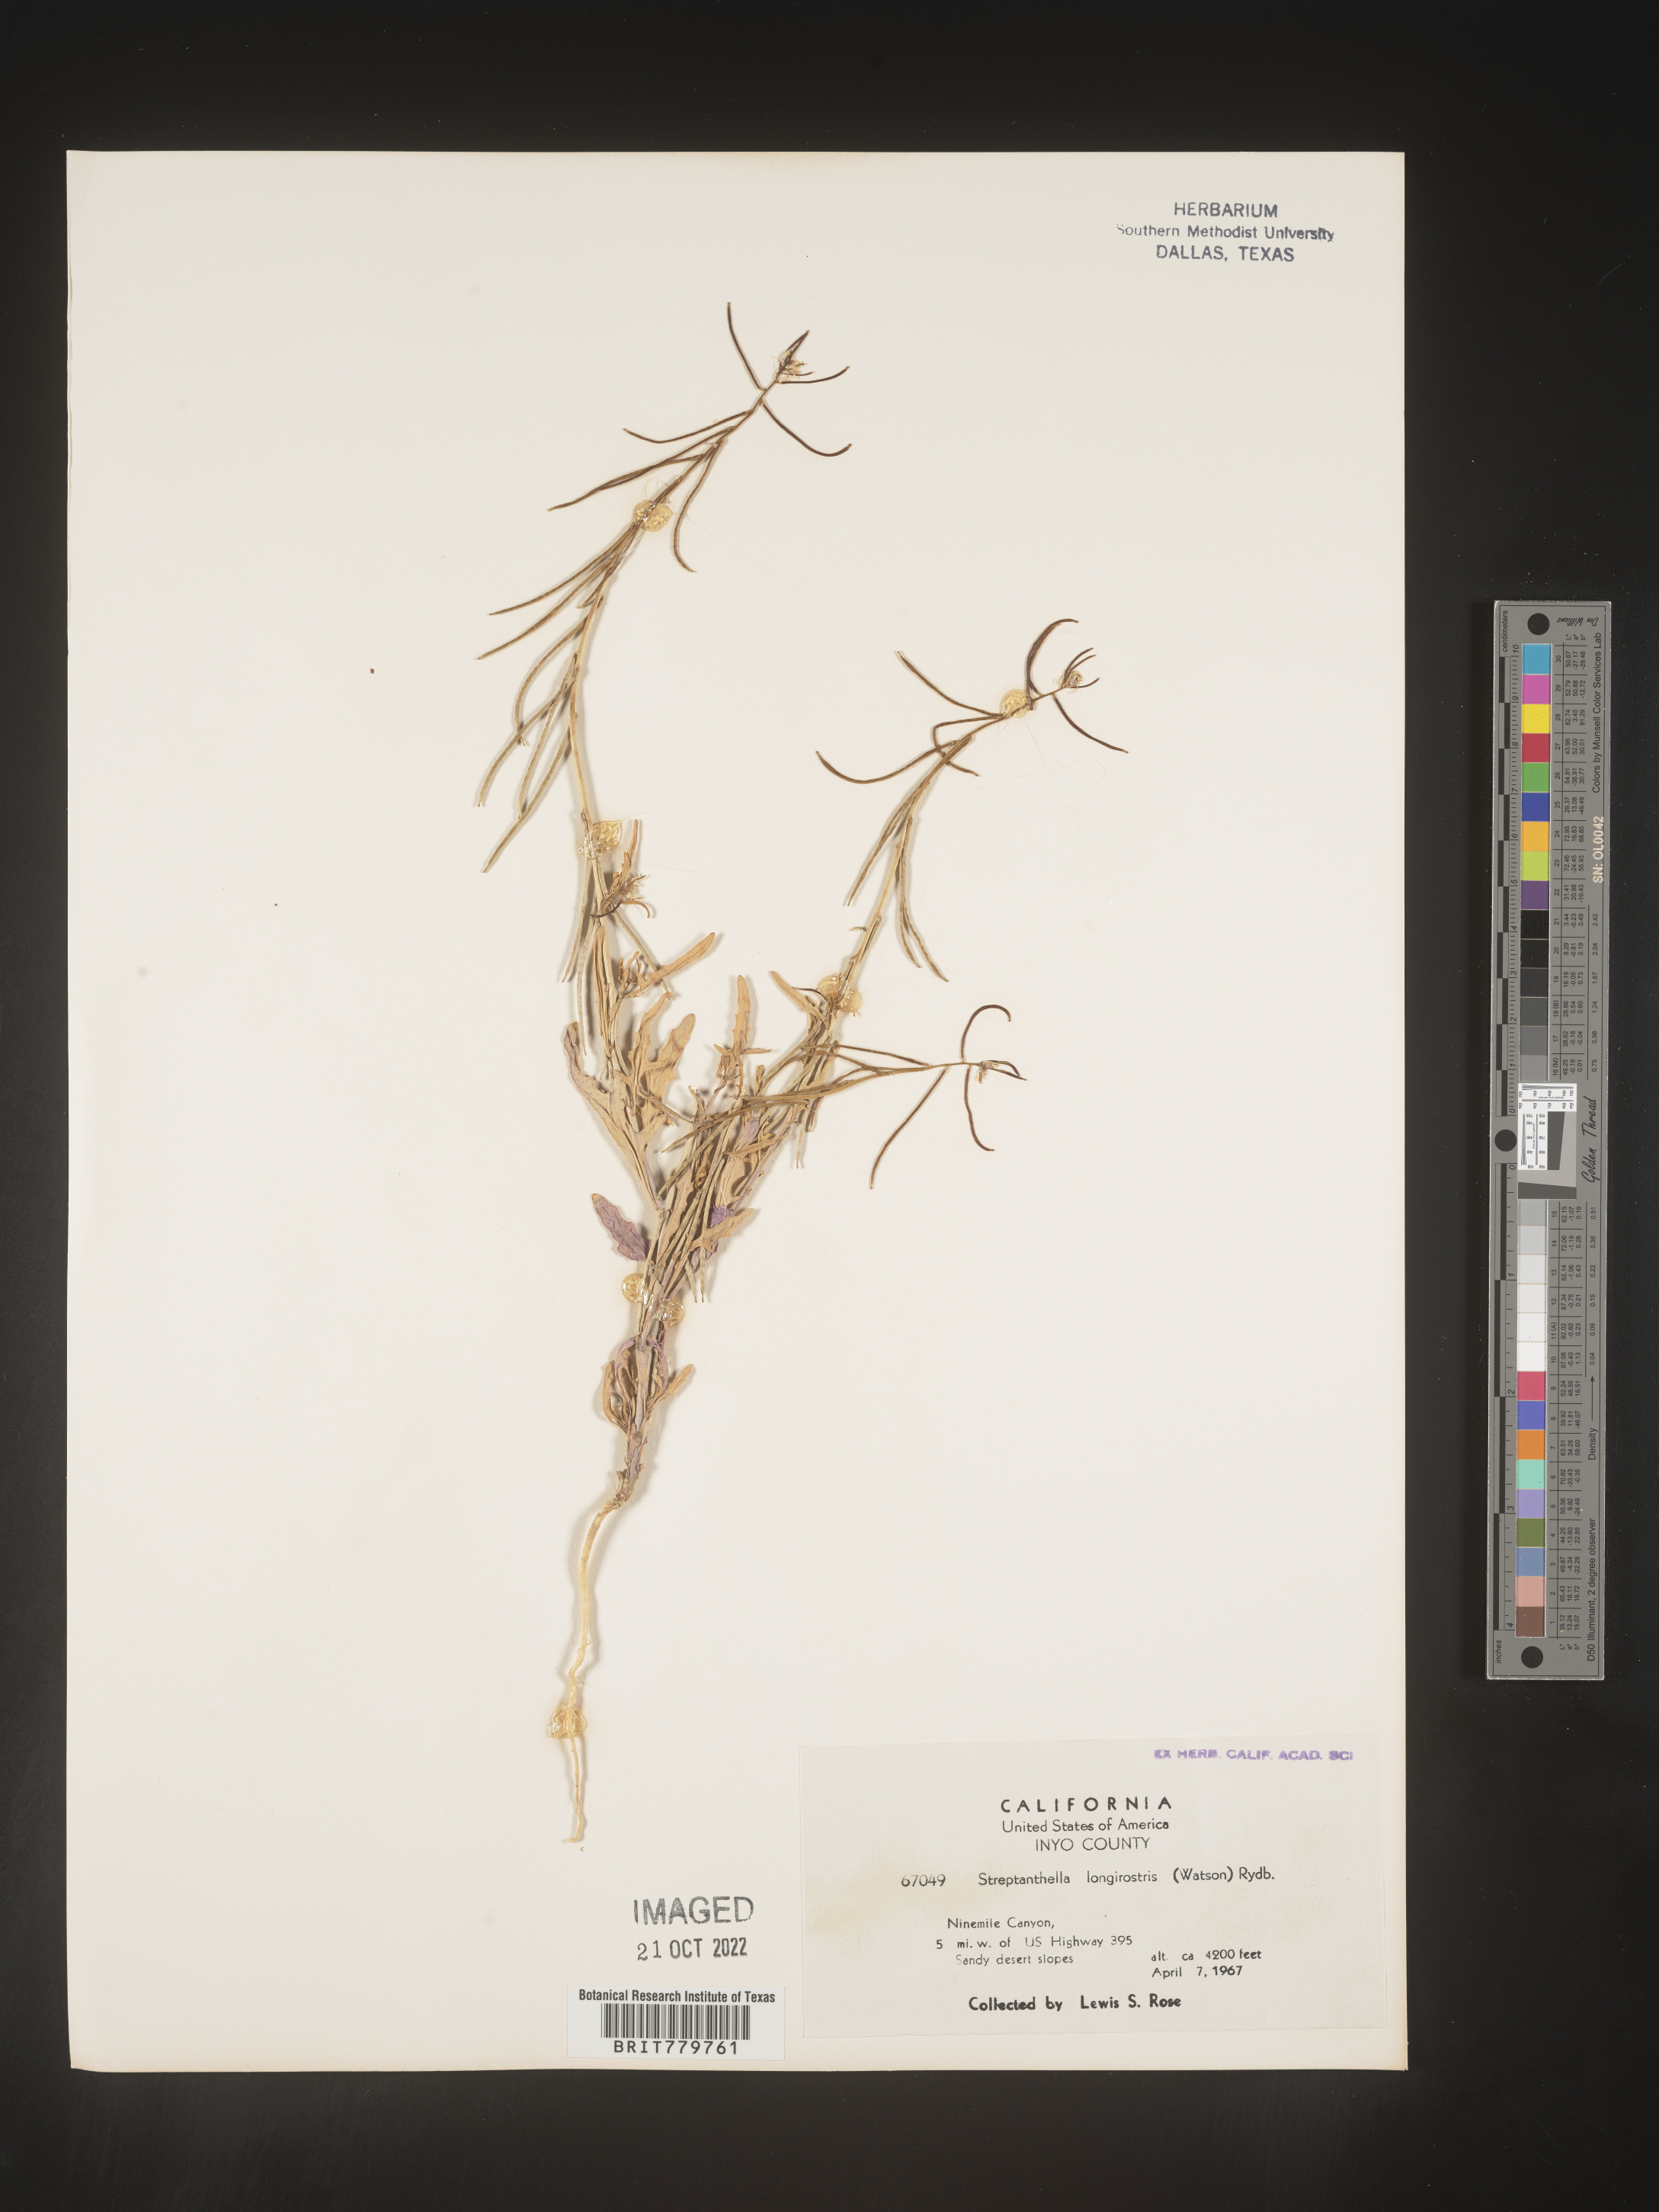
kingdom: Plantae
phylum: Tracheophyta
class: Magnoliopsida
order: Brassicales
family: Brassicaceae
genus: Streptanthus
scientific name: Streptanthus
